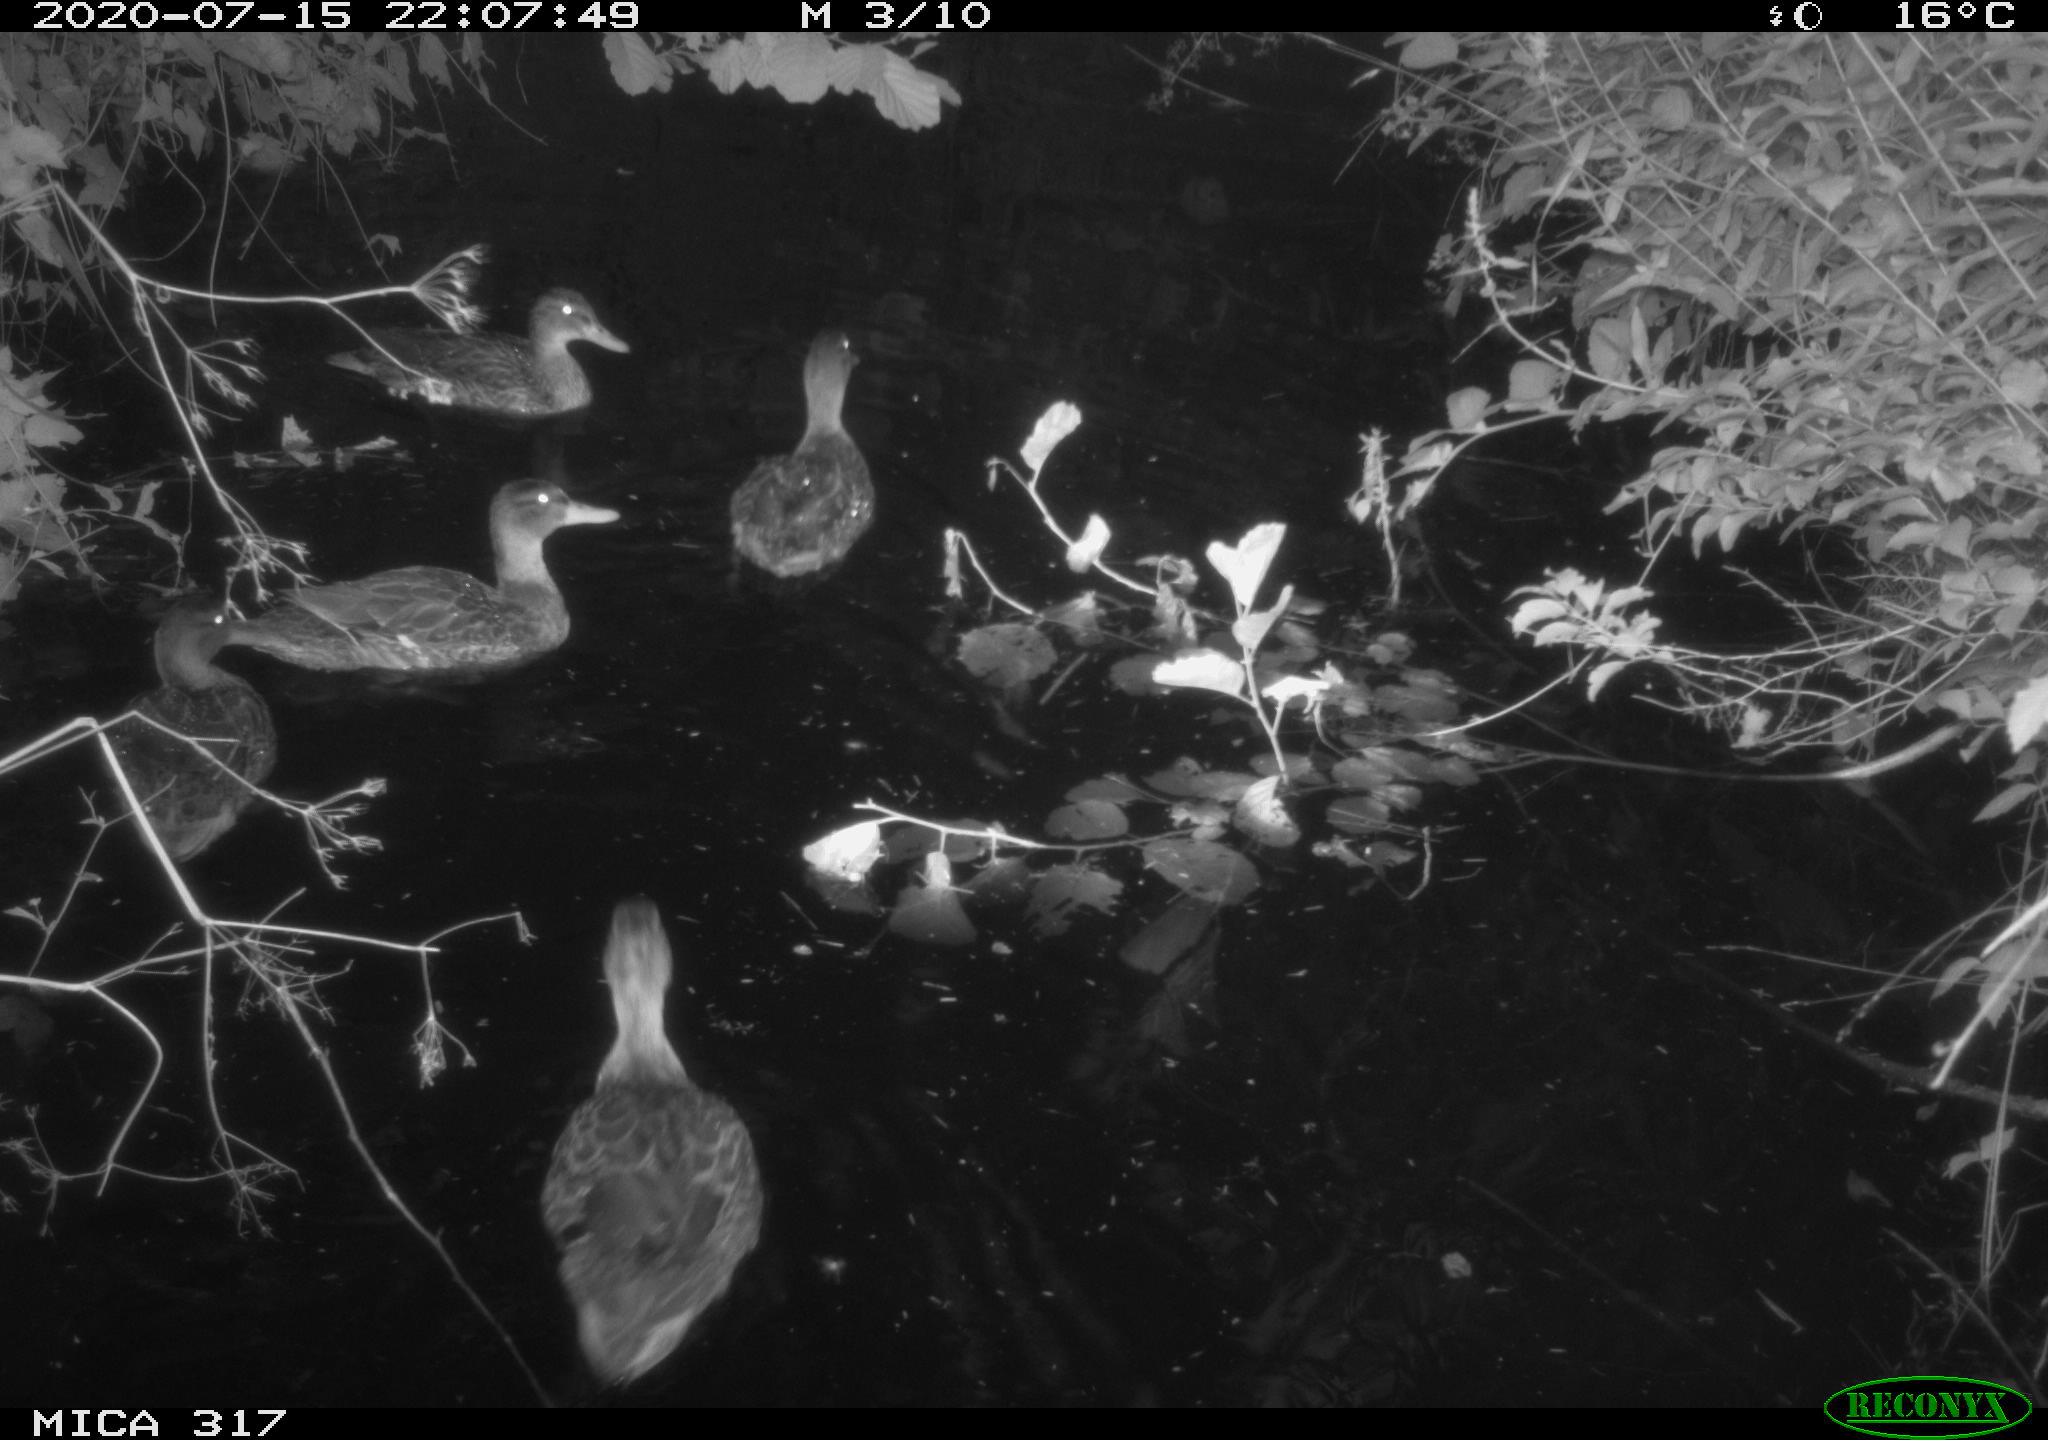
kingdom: Animalia
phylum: Chordata
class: Aves
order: Anseriformes
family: Anatidae
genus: Anas
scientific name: Anas platyrhynchos
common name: Mallard
